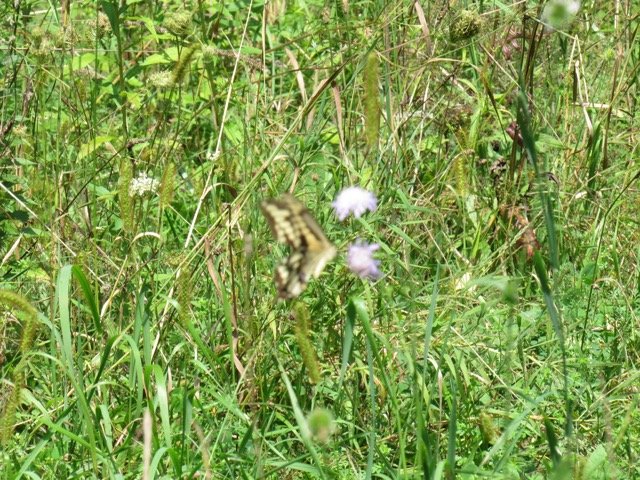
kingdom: Animalia
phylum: Arthropoda
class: Insecta
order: Lepidoptera
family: Papilionidae
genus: Papilio
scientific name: Papilio cresphontes
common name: Eastern Giant Swallowtail
